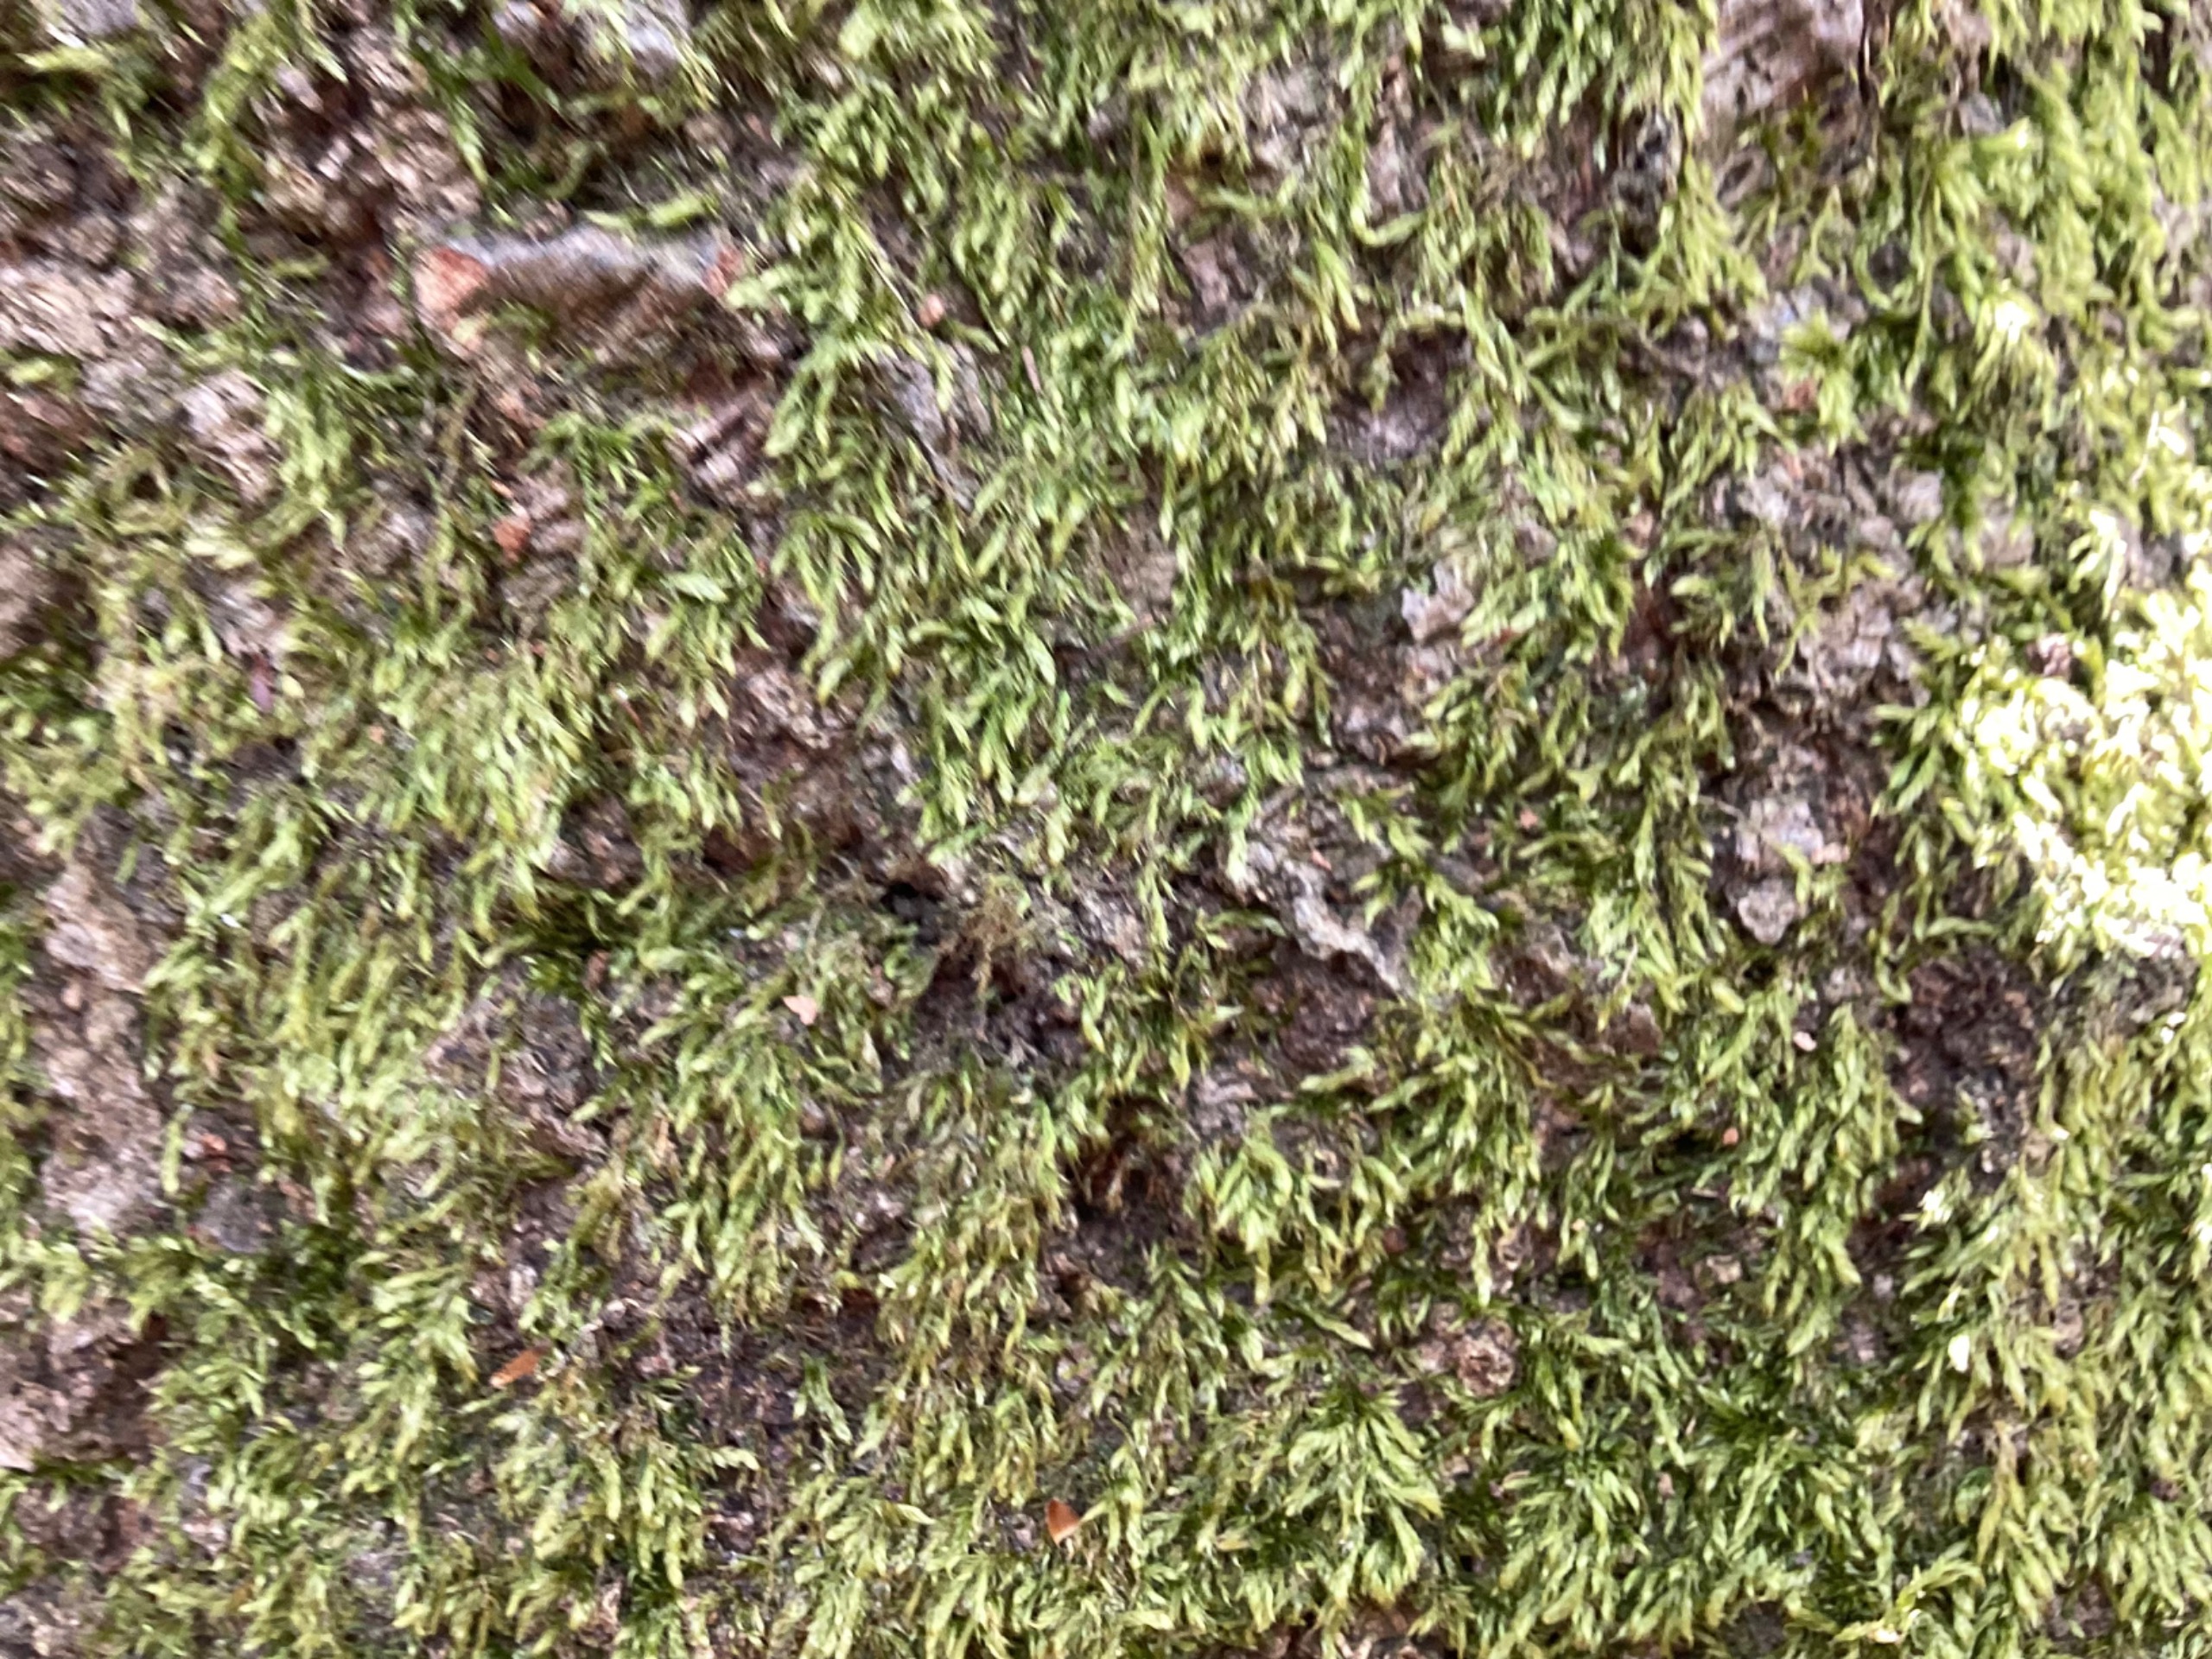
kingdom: Plantae
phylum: Bryophyta
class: Bryopsida
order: Hypnales
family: Hypnaceae
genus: Hypnum
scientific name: Hypnum
